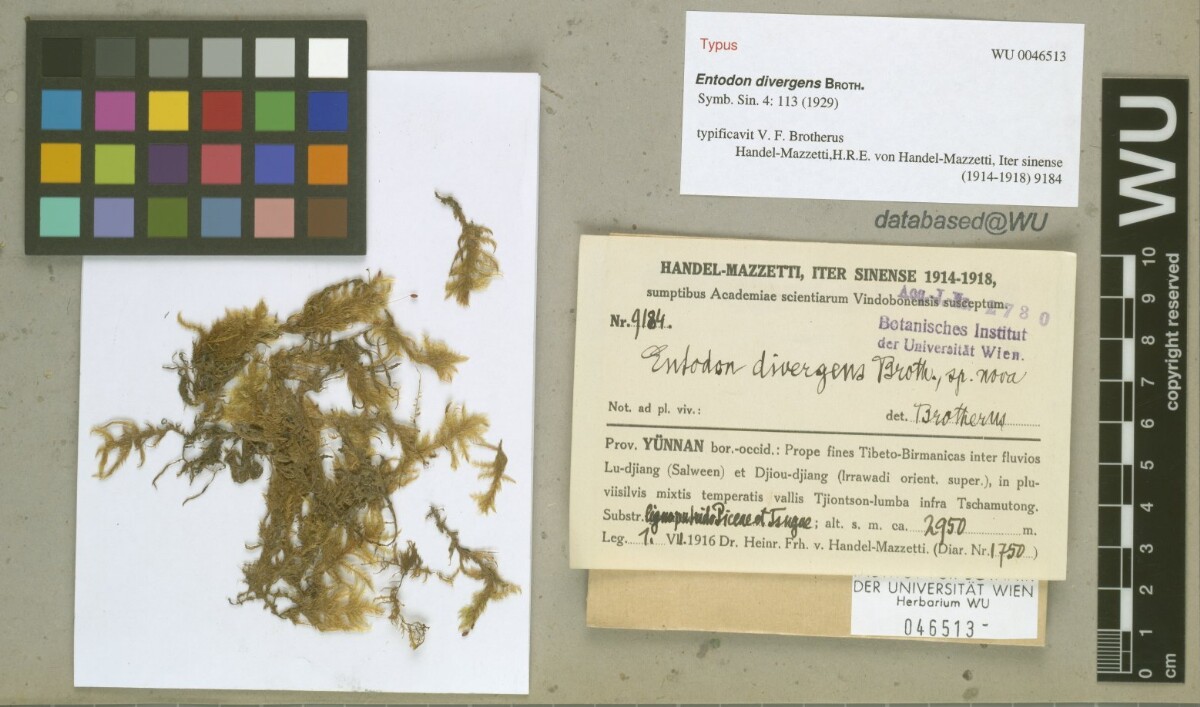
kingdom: Plantae
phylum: Bryophyta
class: Bryopsida
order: Hypnales
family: Entodontaceae
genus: Entodon
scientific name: Entodon divergens
